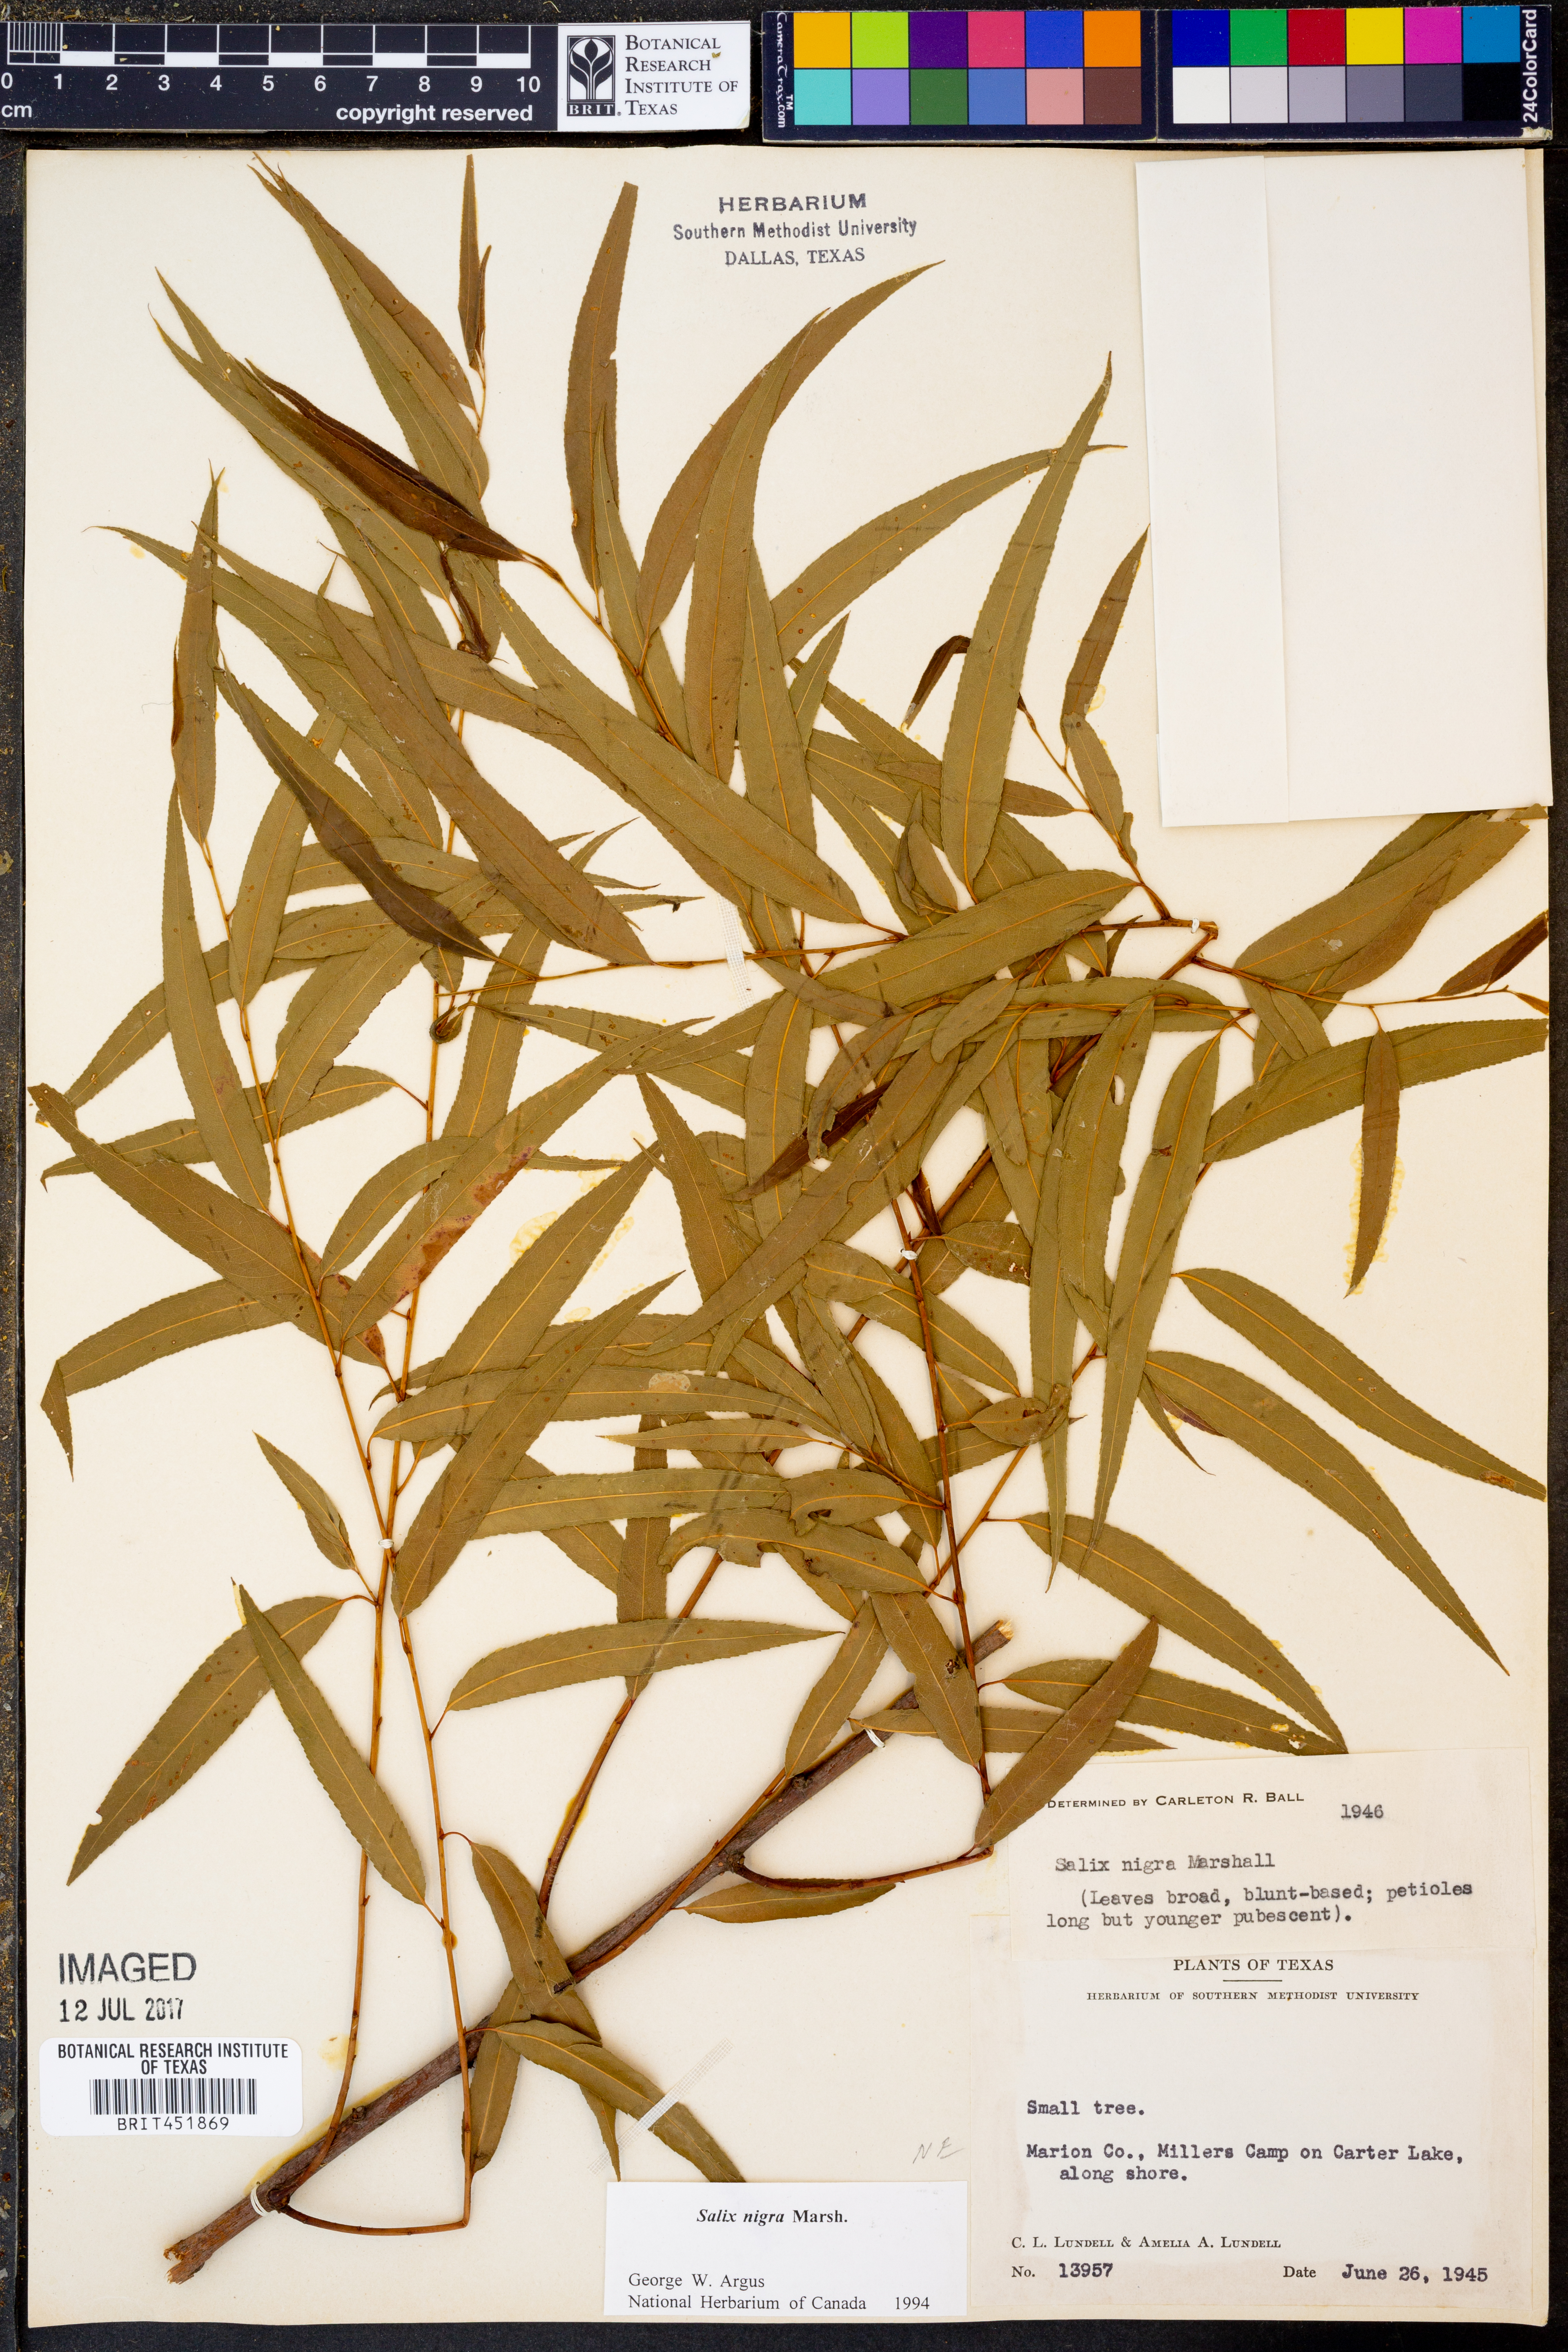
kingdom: Plantae
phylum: Tracheophyta
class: Magnoliopsida
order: Malpighiales
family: Salicaceae
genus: Salix
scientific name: Salix nigra
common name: Black willow
